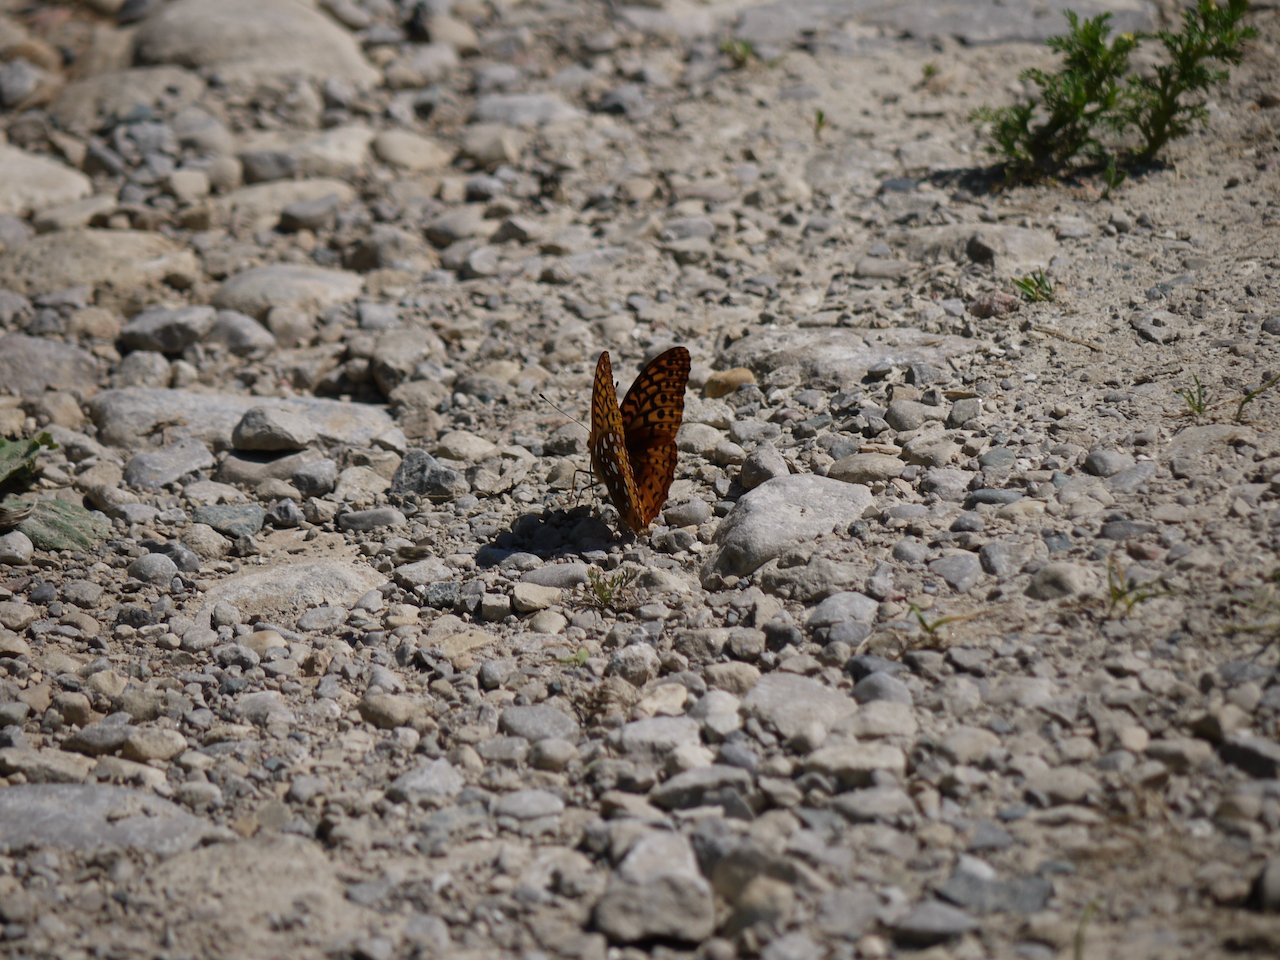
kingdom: Animalia
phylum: Arthropoda
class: Insecta
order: Lepidoptera
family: Nymphalidae
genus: Speyeria
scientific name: Speyeria
